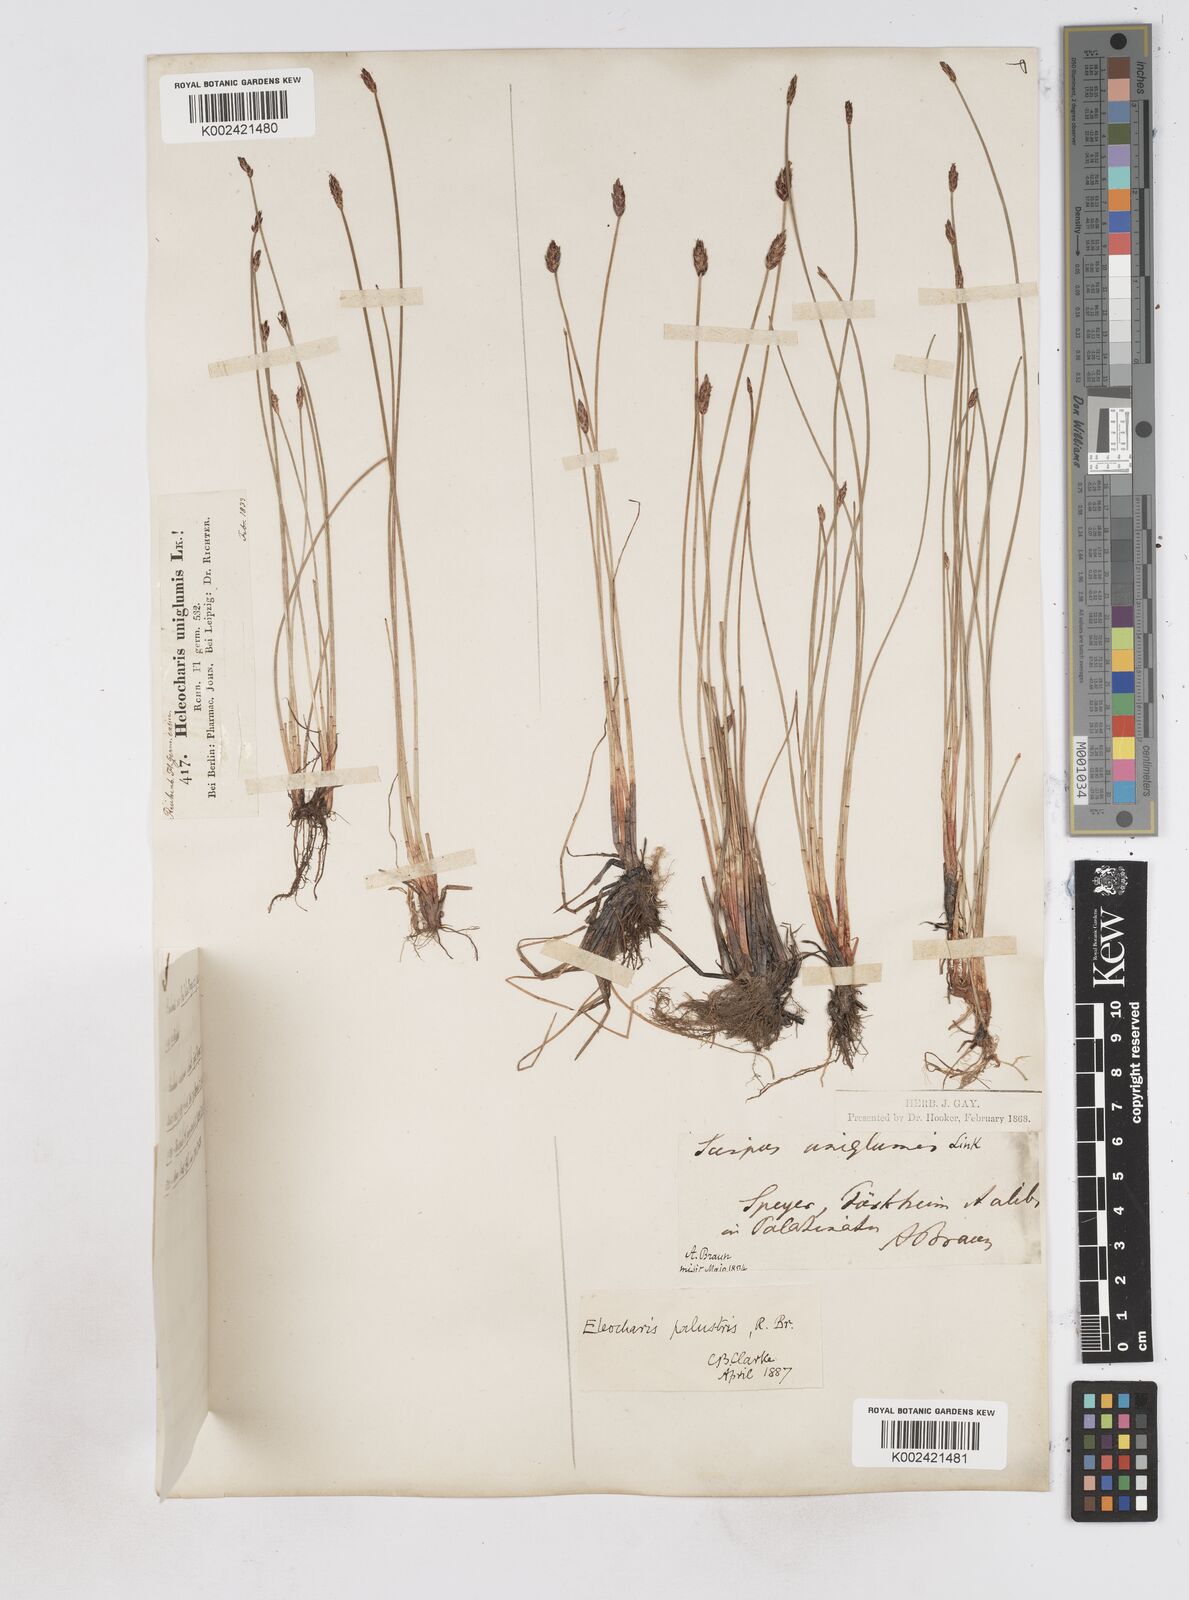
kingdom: Plantae
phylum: Tracheophyta
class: Liliopsida
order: Poales
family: Cyperaceae
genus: Eleocharis
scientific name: Eleocharis uniglumis
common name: Slender spike-rush
